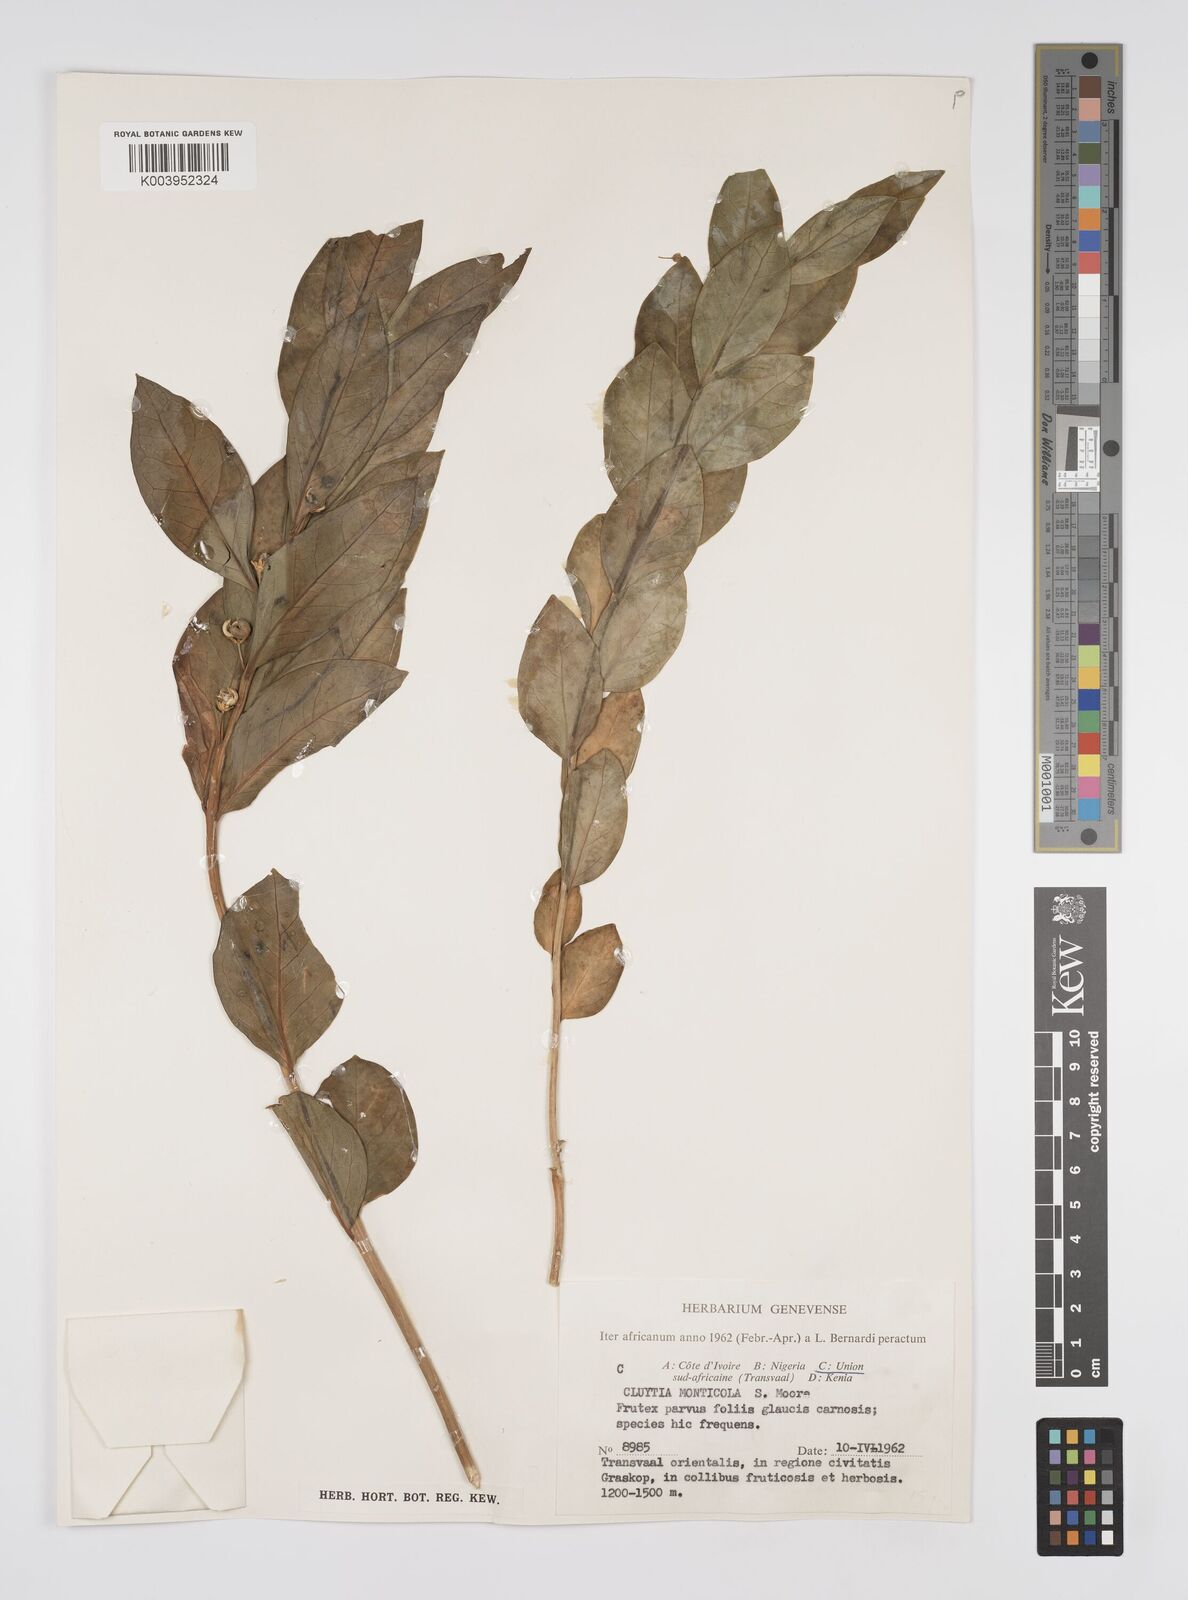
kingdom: Plantae
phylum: Tracheophyta
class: Magnoliopsida
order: Malpighiales
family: Peraceae
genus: Clutia
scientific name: Clutia
